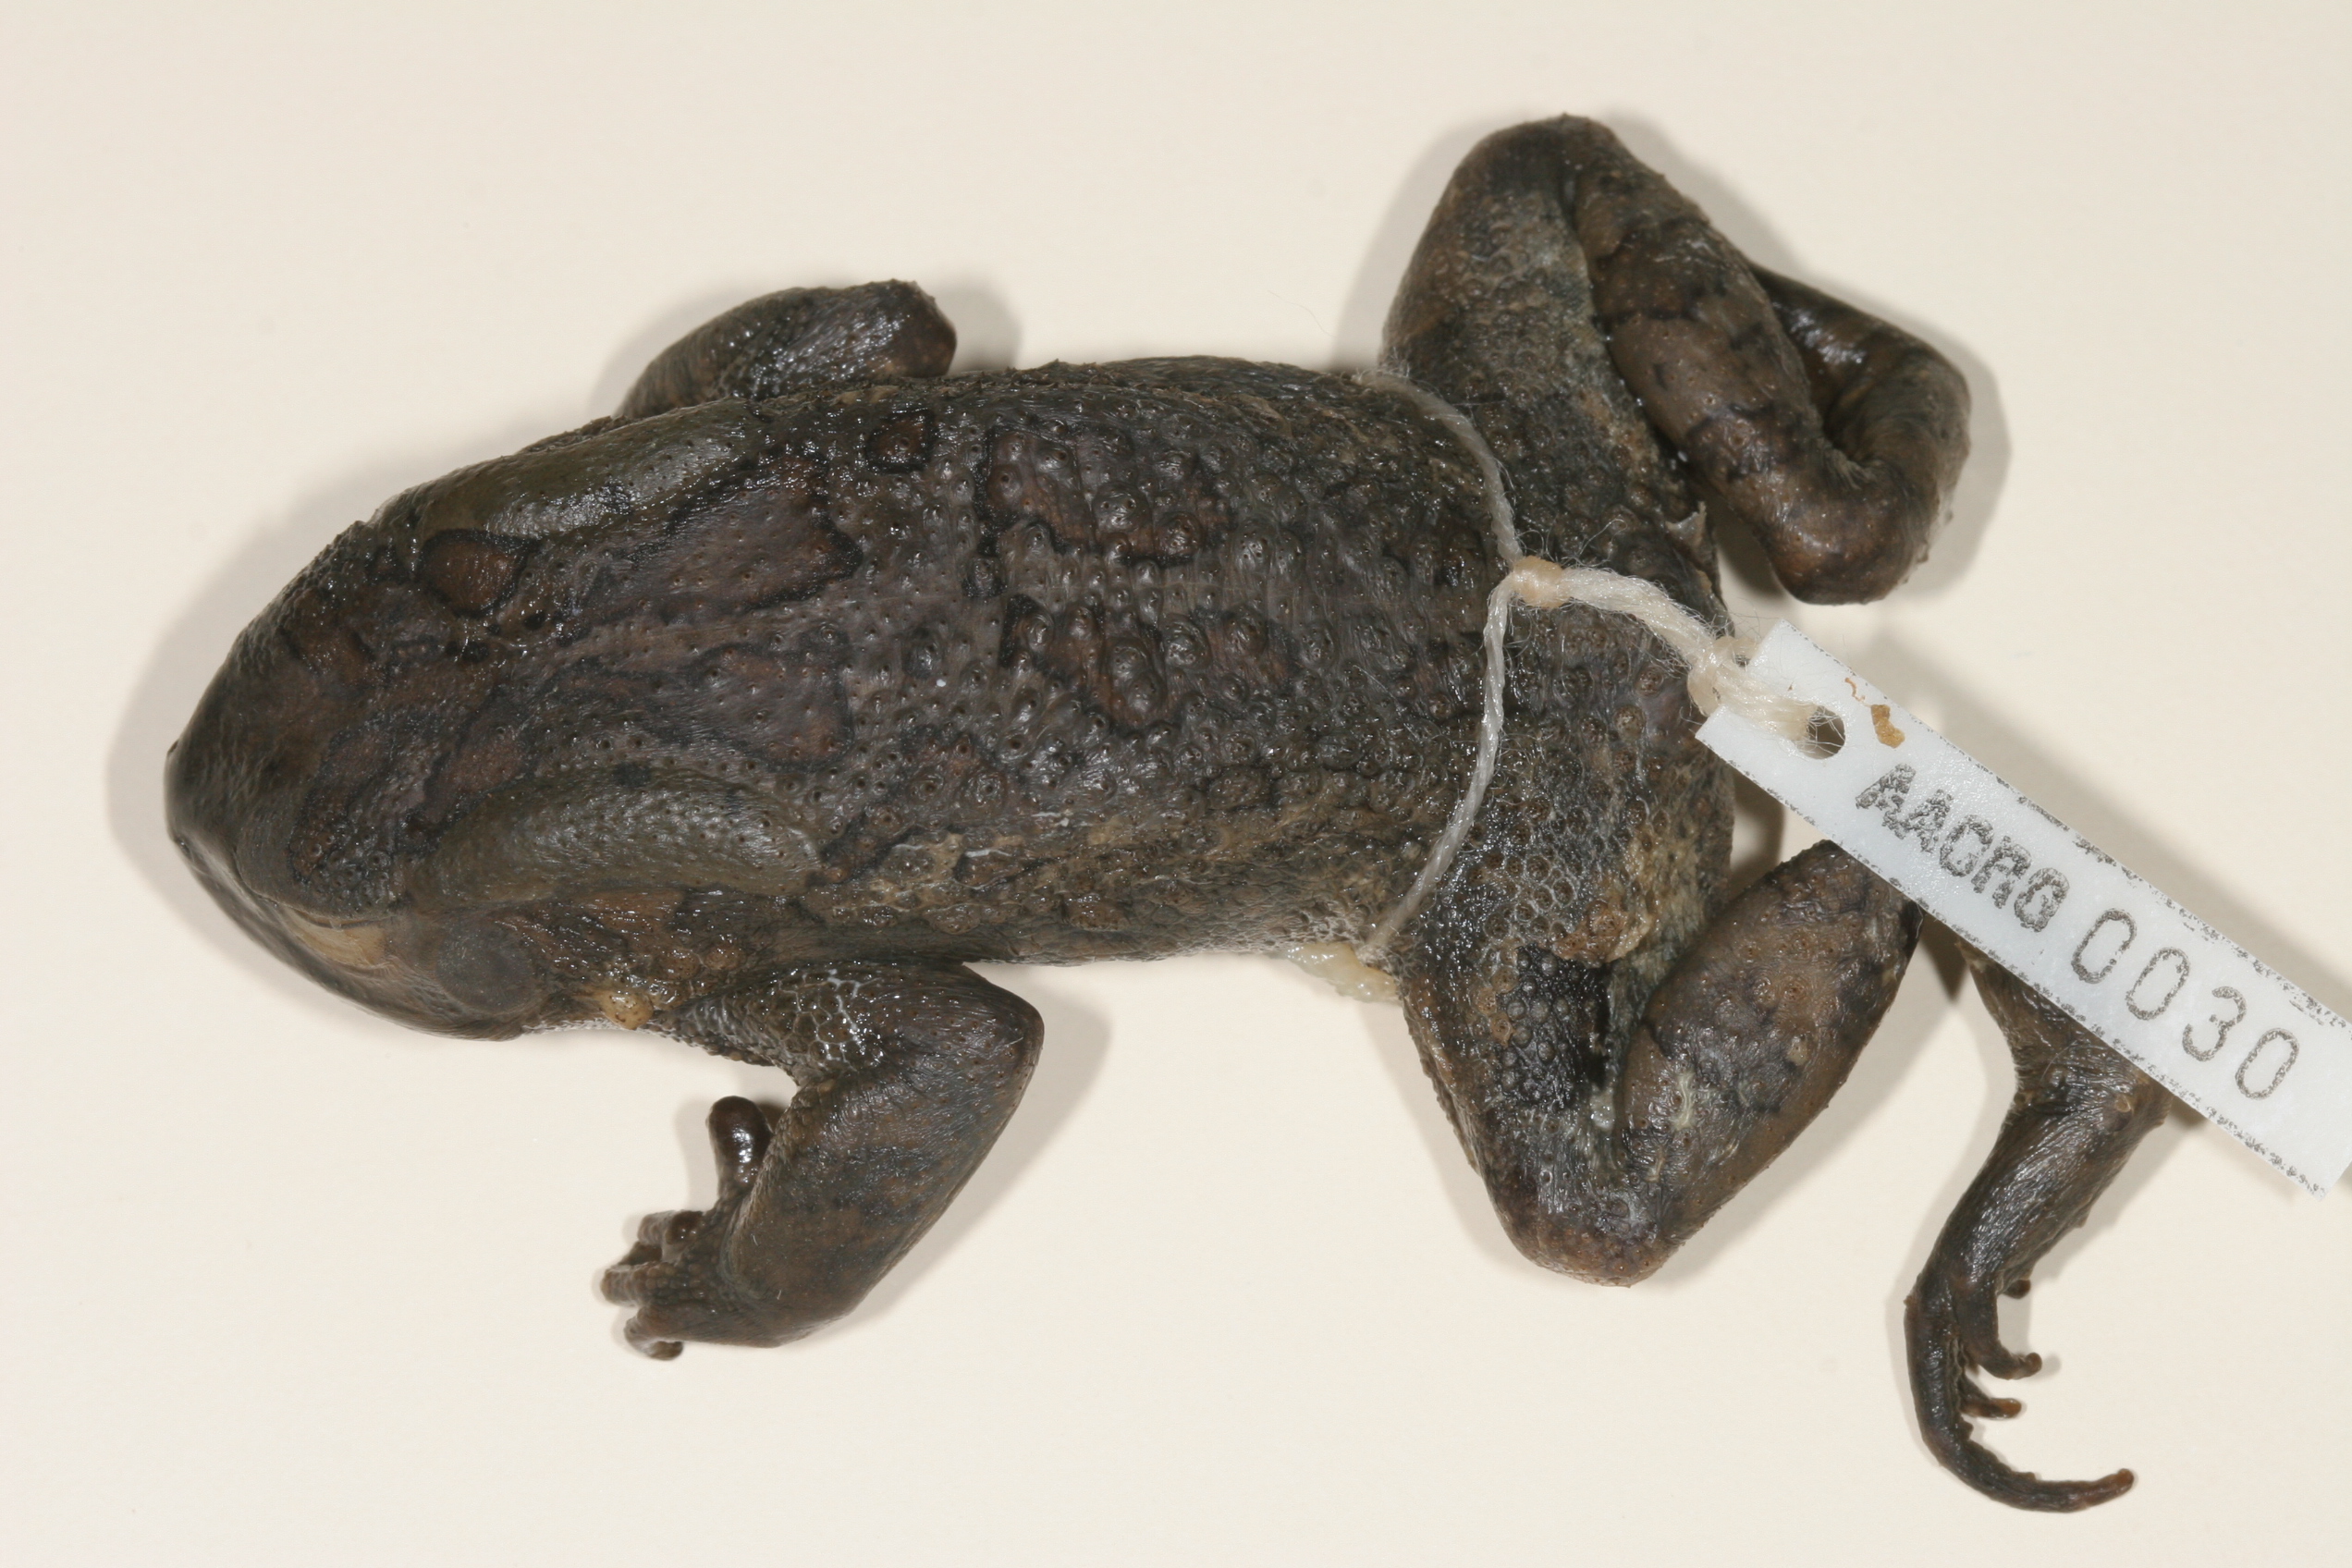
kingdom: Animalia
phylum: Chordata
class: Amphibia
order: Anura
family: Bufonidae
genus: Sclerophrys
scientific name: Sclerophrys garmani
